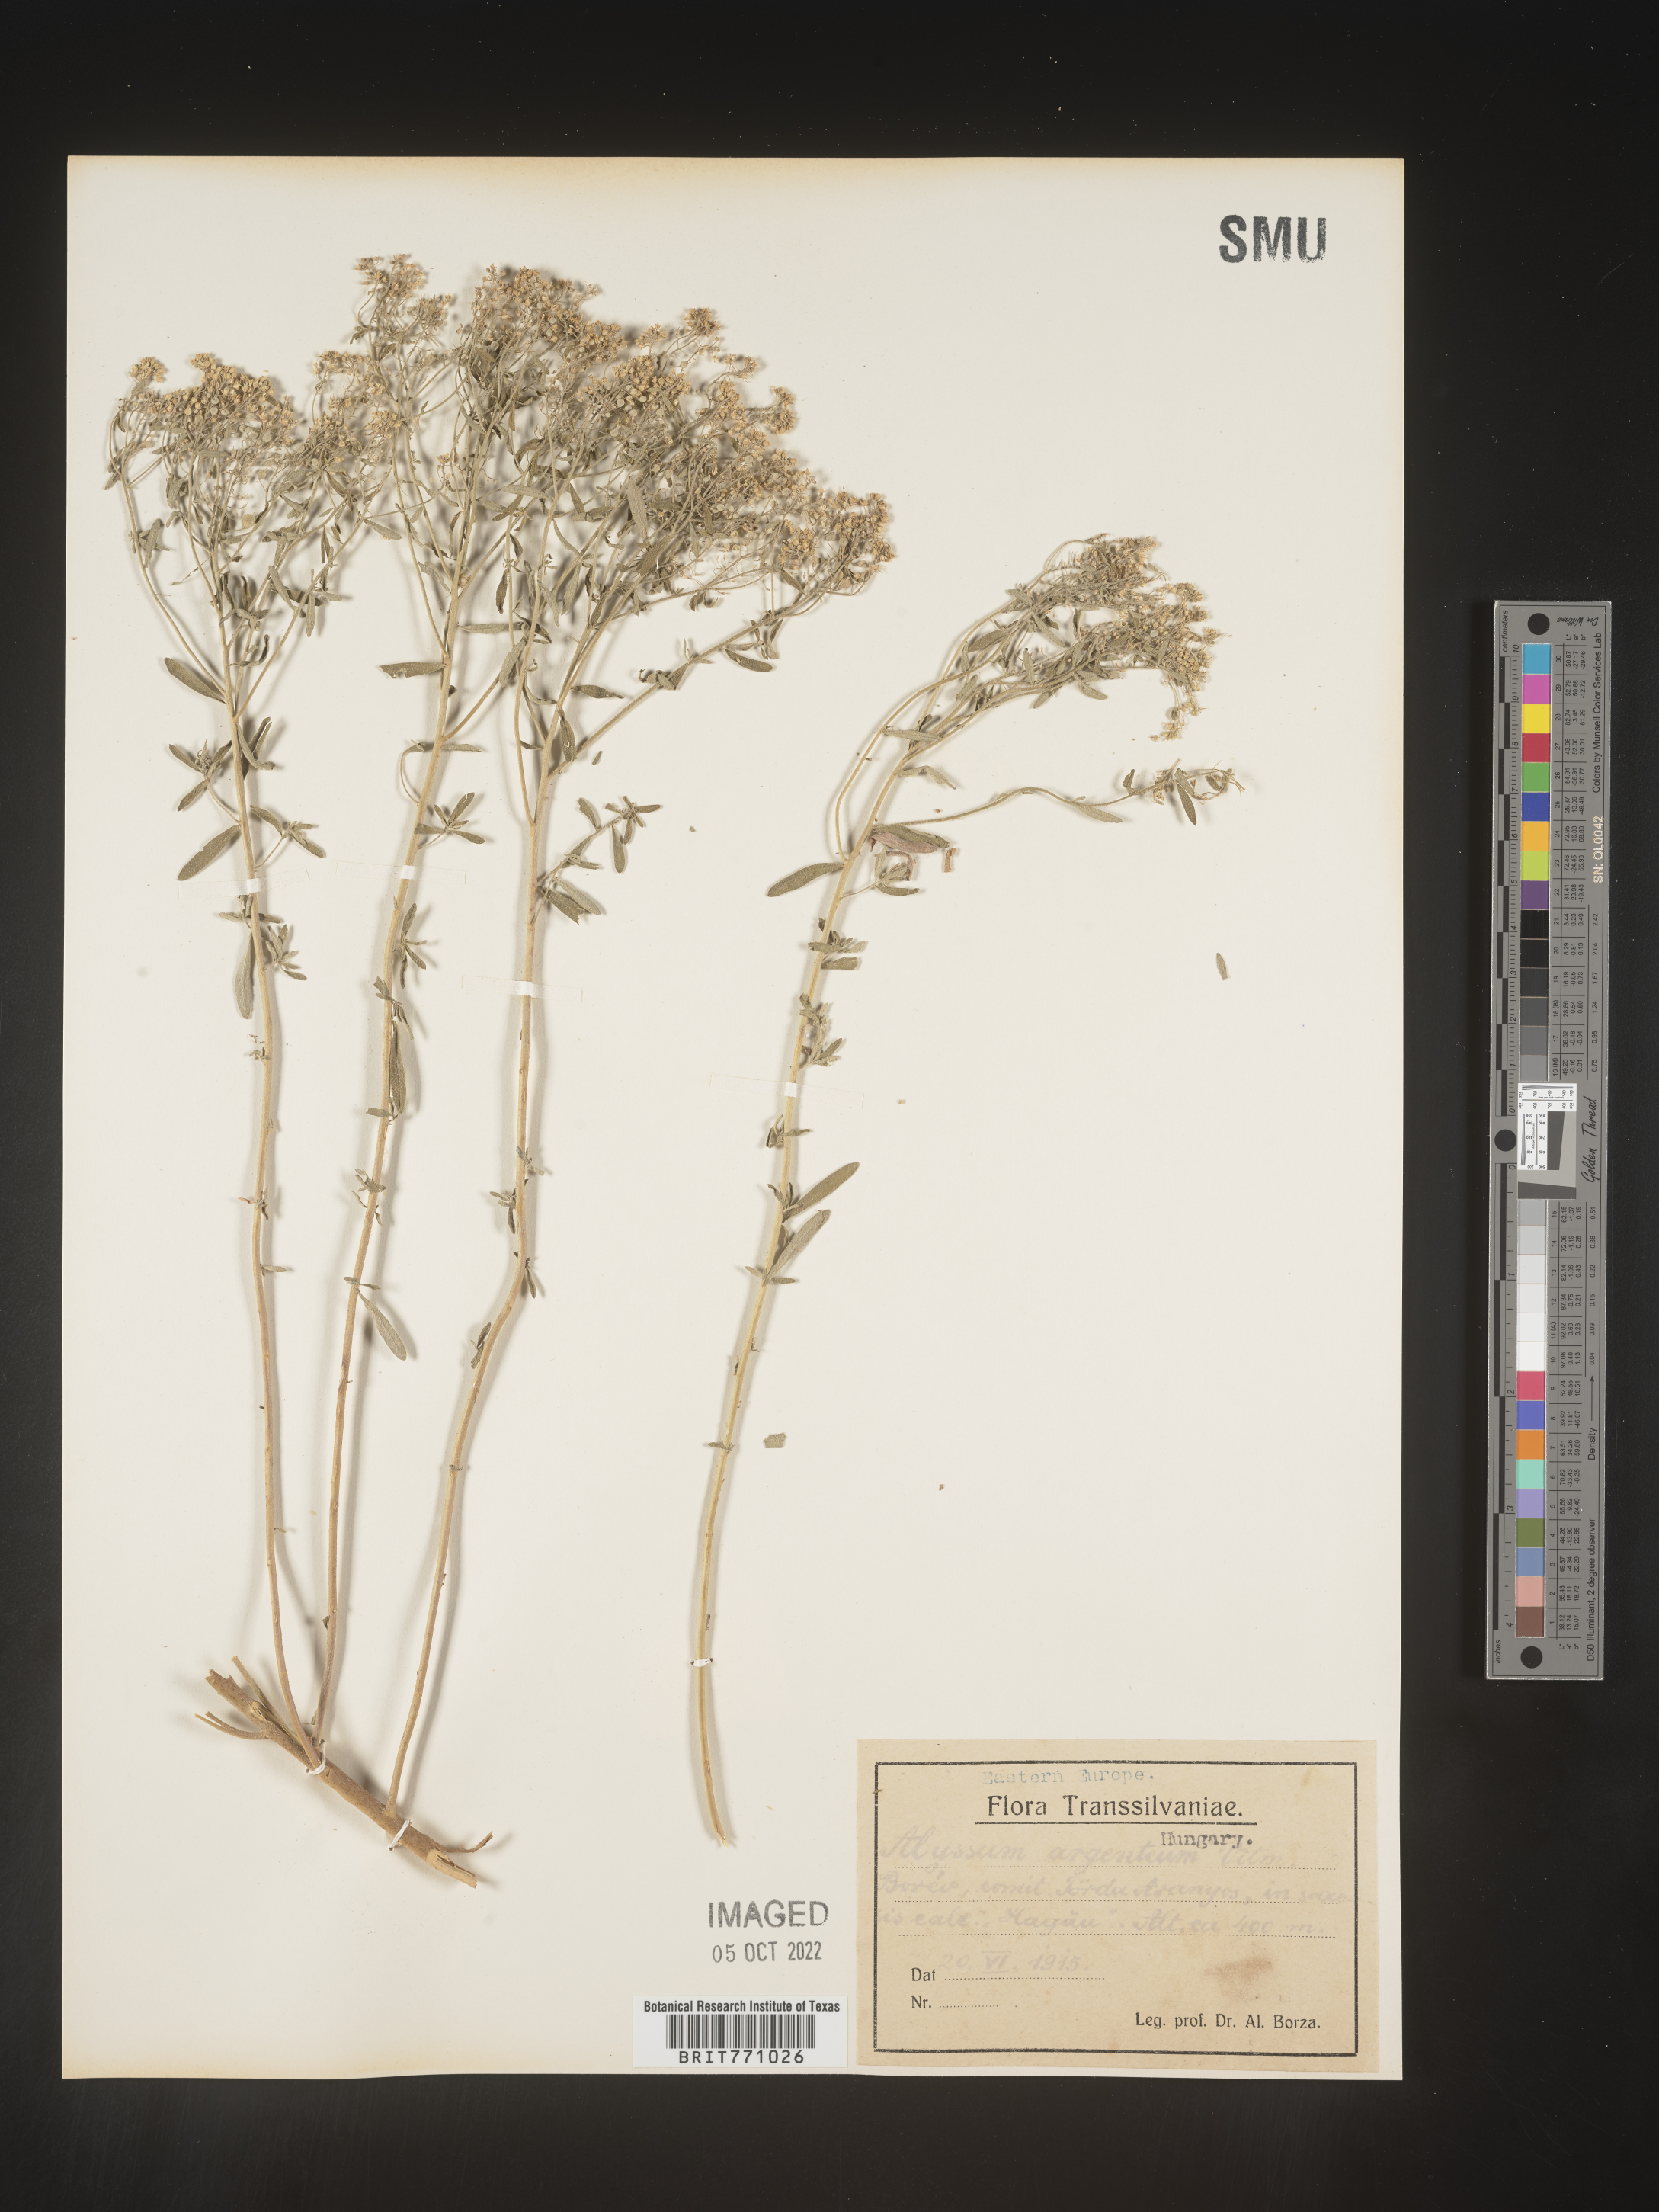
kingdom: Plantae
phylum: Tracheophyta
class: Magnoliopsida
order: Brassicales
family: Brassicaceae
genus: Alyssum
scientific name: Alyssum
